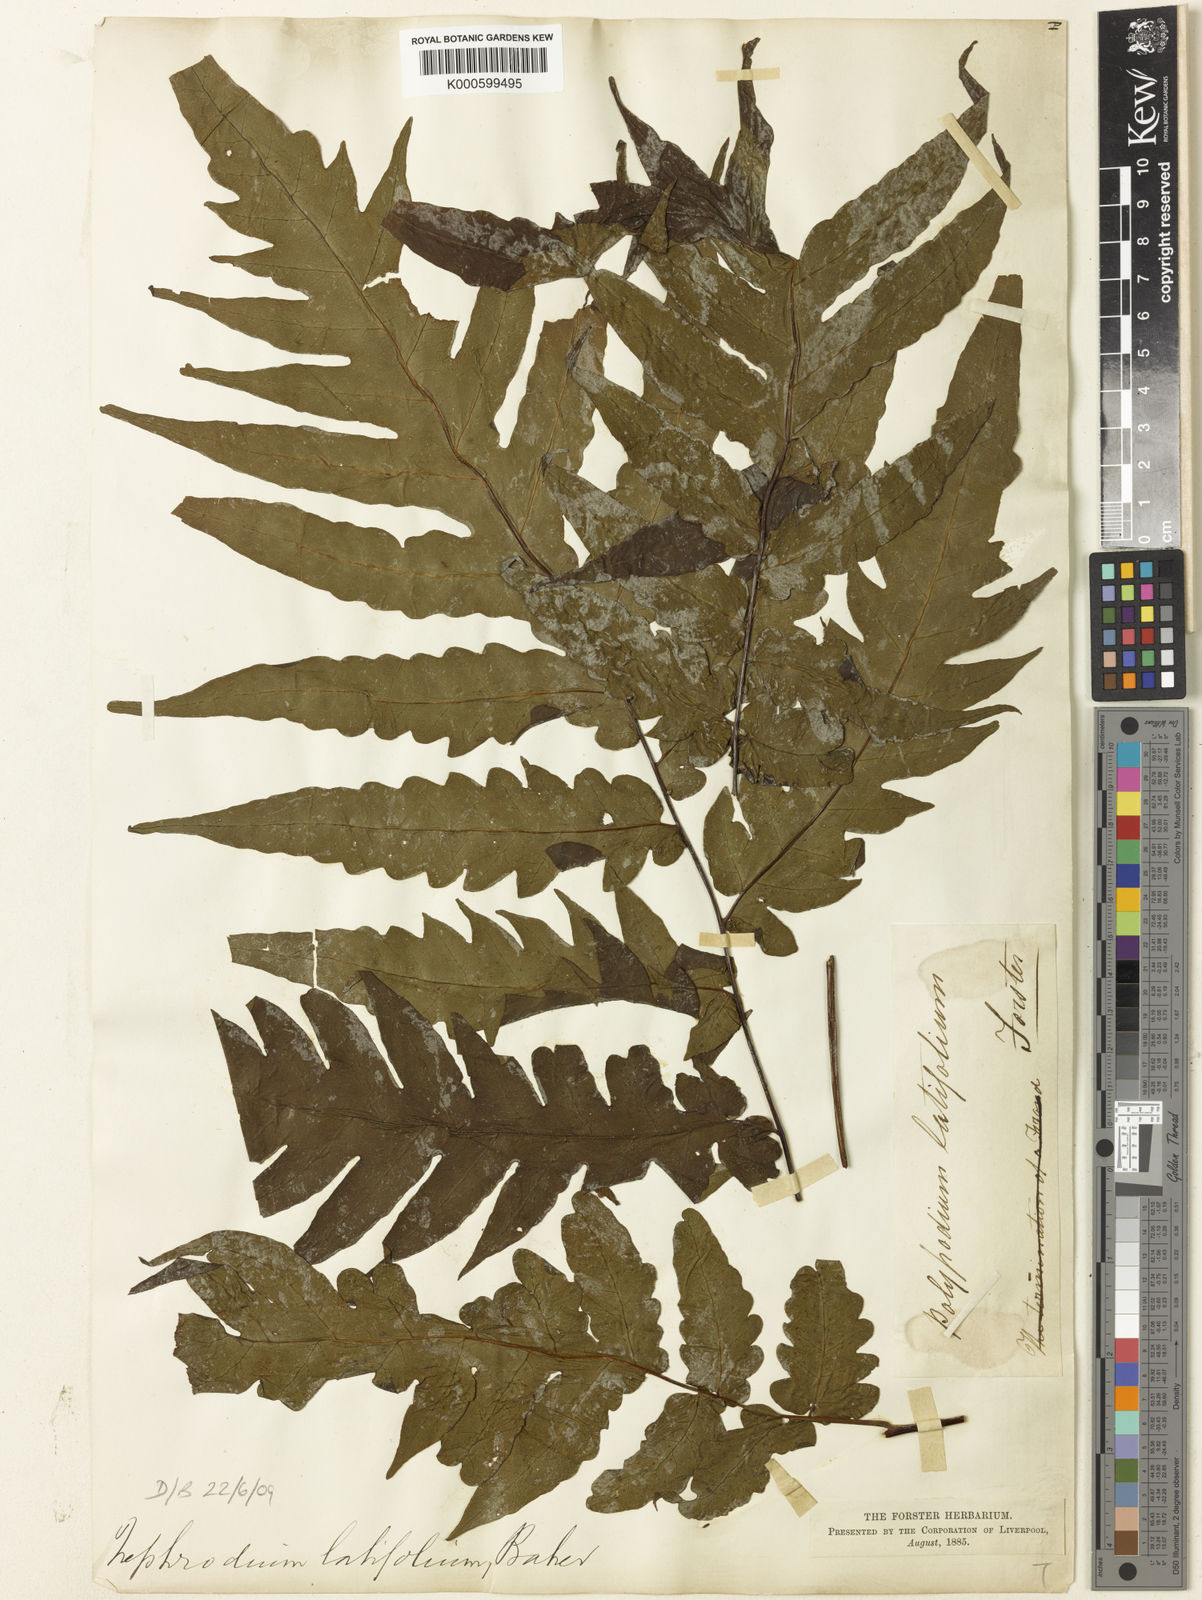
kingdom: Plantae
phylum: Tracheophyta
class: Polypodiopsida
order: Polypodiales
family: Tectariaceae
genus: Tectaria
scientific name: Tectaria latifolia
